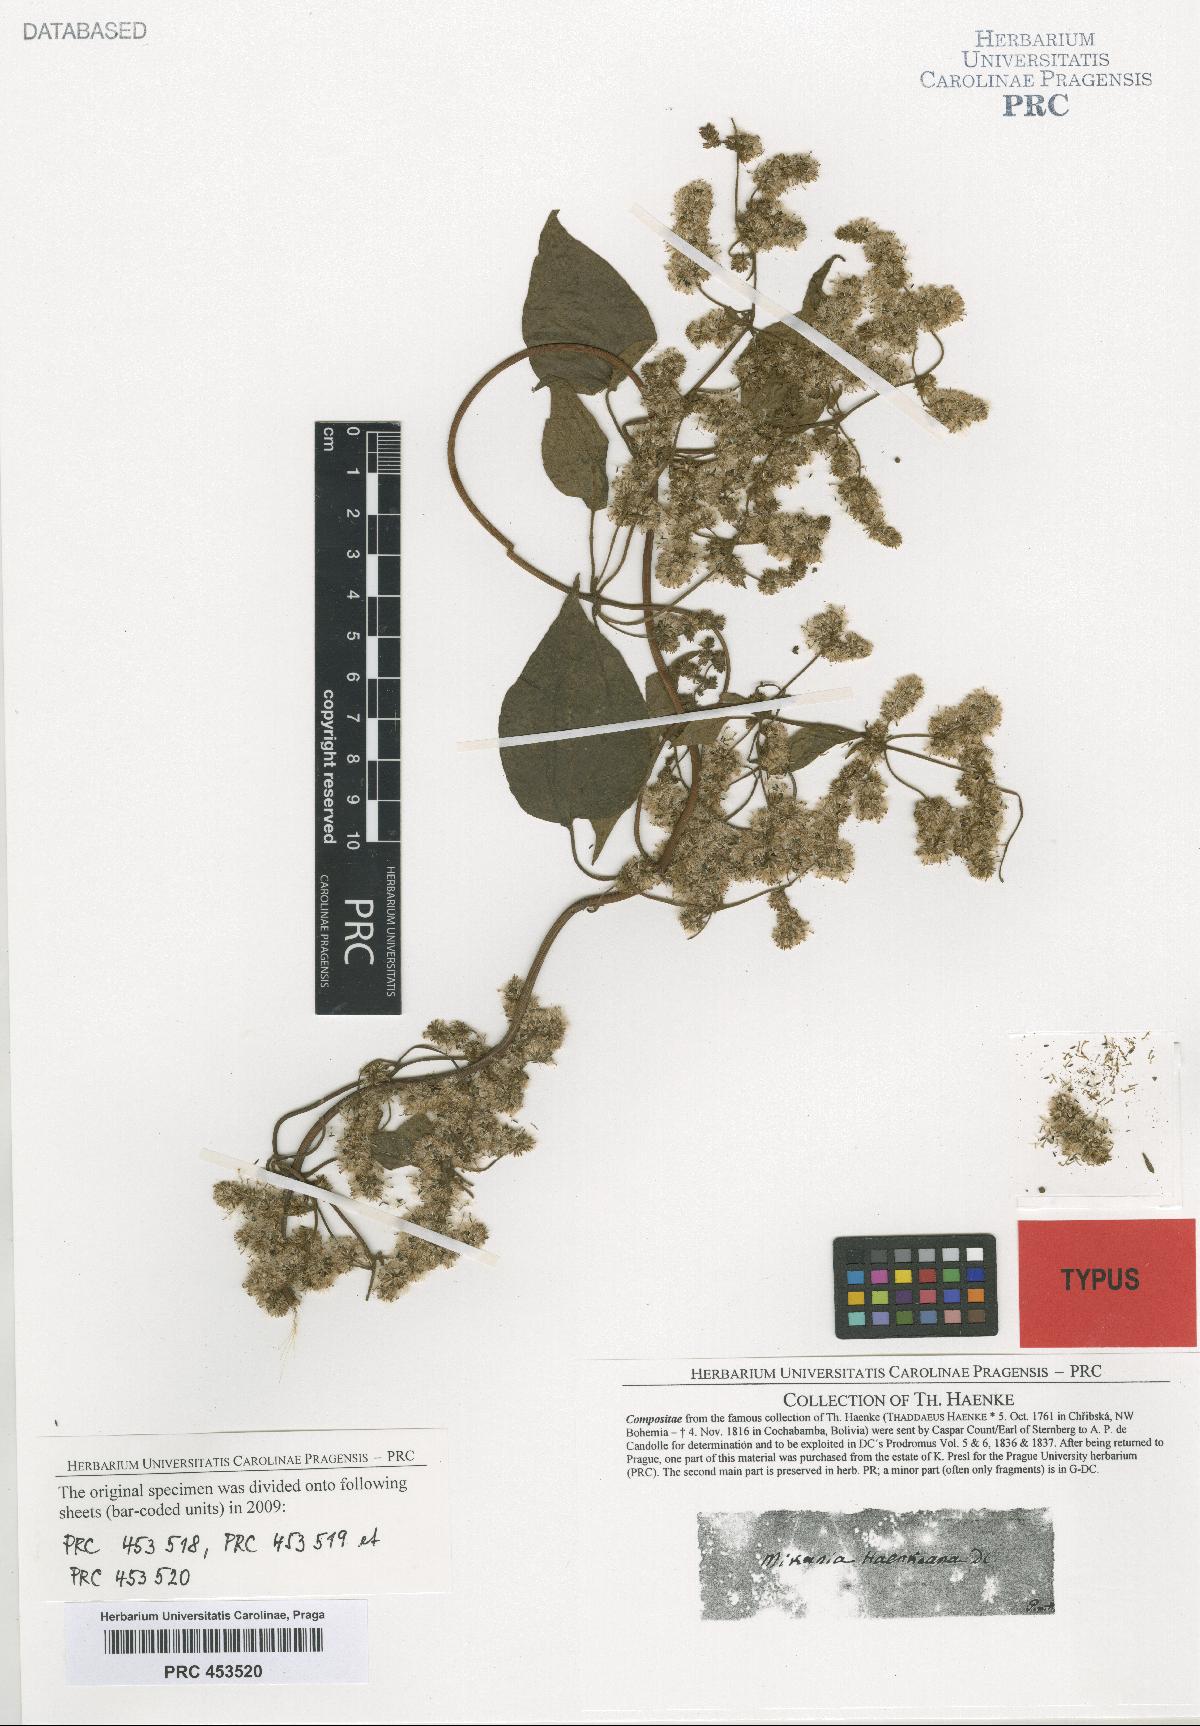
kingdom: Plantae
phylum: Tracheophyta
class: Magnoliopsida
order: Asterales
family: Asteraceae
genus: Mikania
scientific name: Mikania haenkeana
